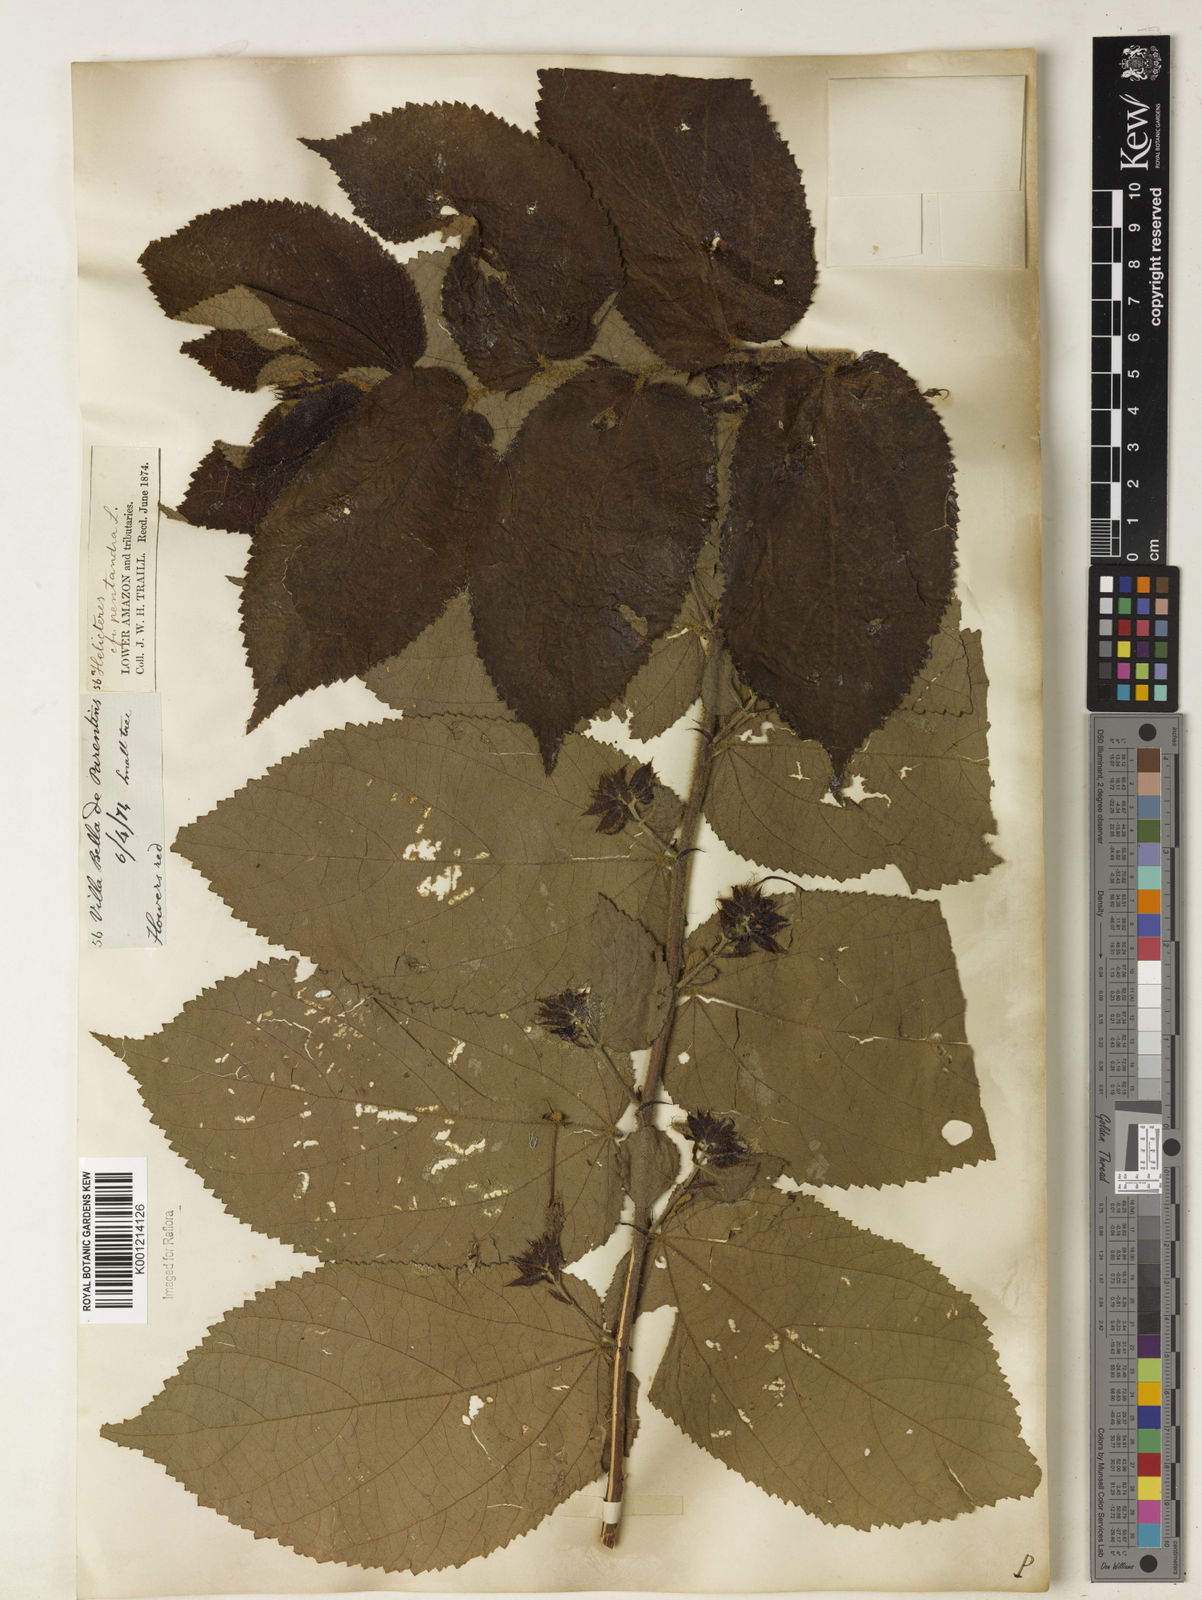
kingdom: Plantae
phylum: Tracheophyta
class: Magnoliopsida
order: Malvales
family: Malvaceae
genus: Helicteres
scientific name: Helicteres pentandra
